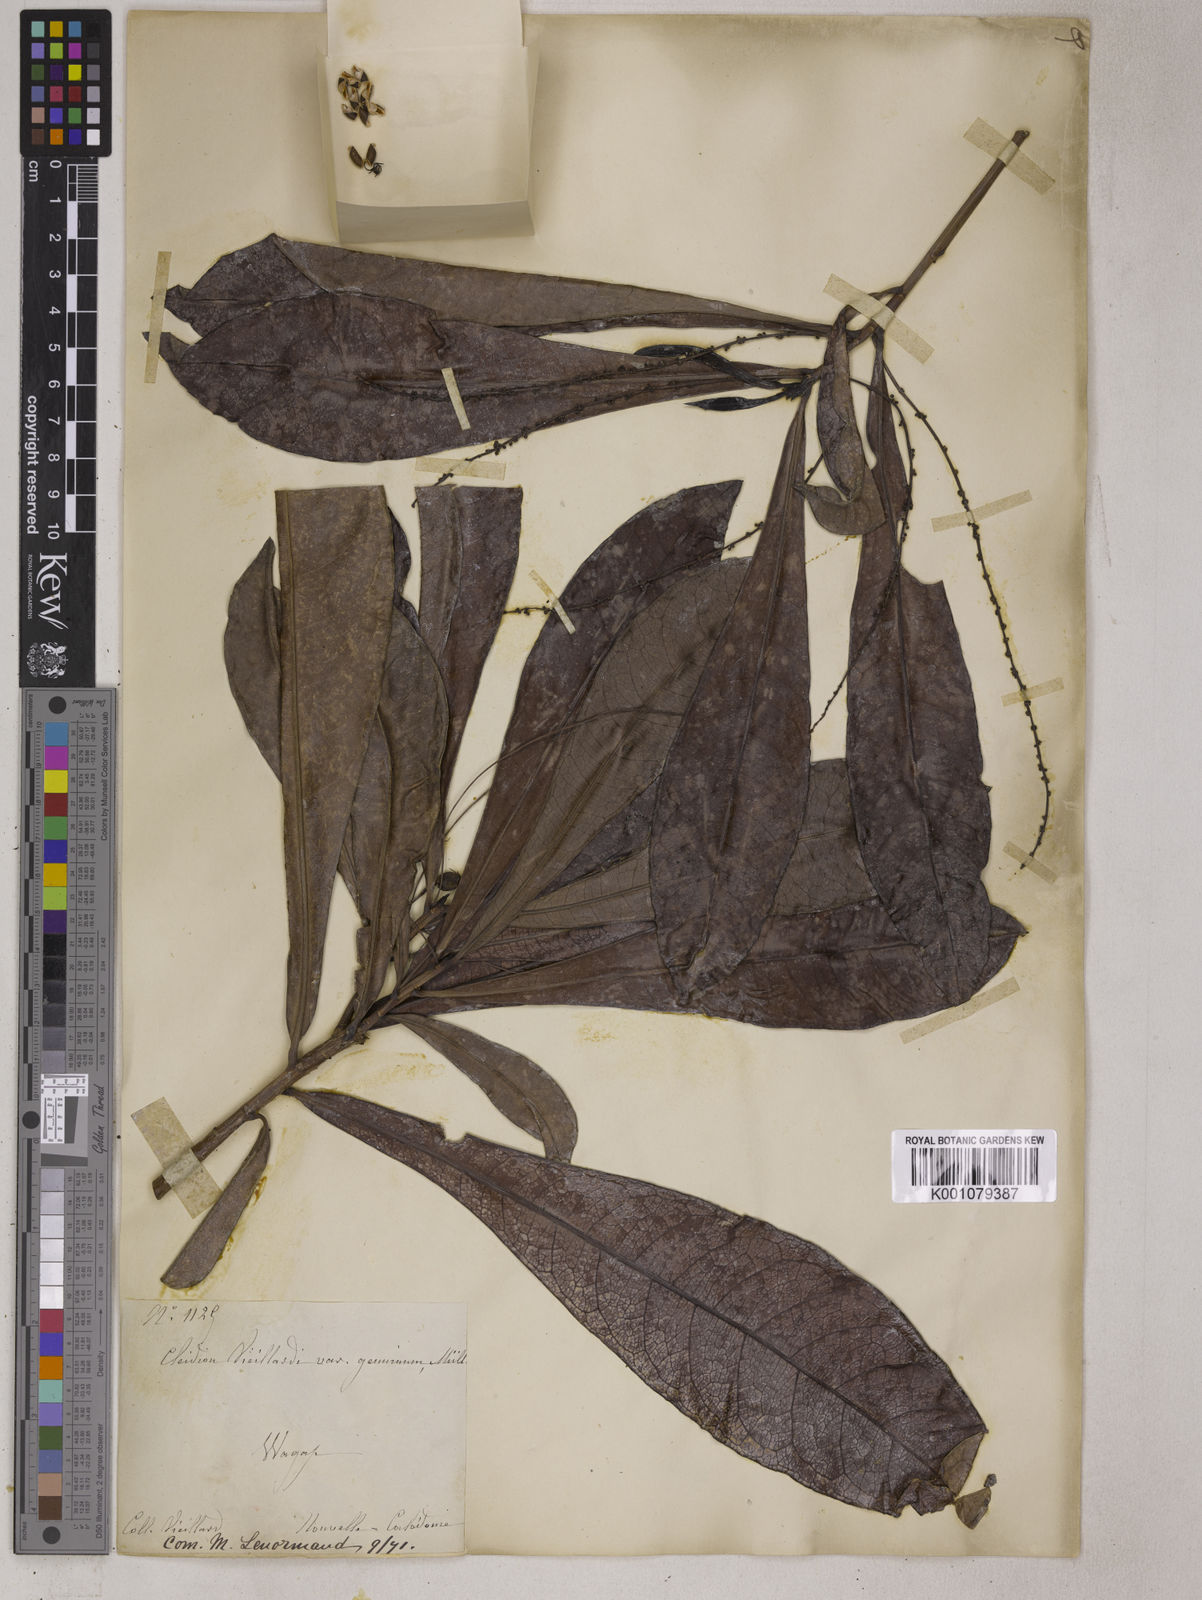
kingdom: Plantae
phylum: Tracheophyta
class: Magnoliopsida
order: Malpighiales
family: Euphorbiaceae
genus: Cleidion
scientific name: Cleidion vieillardii
